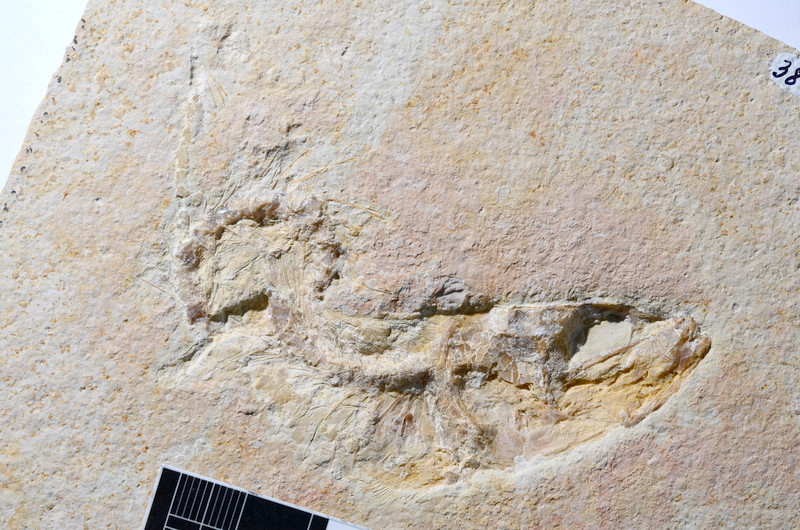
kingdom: Animalia
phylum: Chordata
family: Ascalaboidae
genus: Tharsis
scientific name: Tharsis dubius
